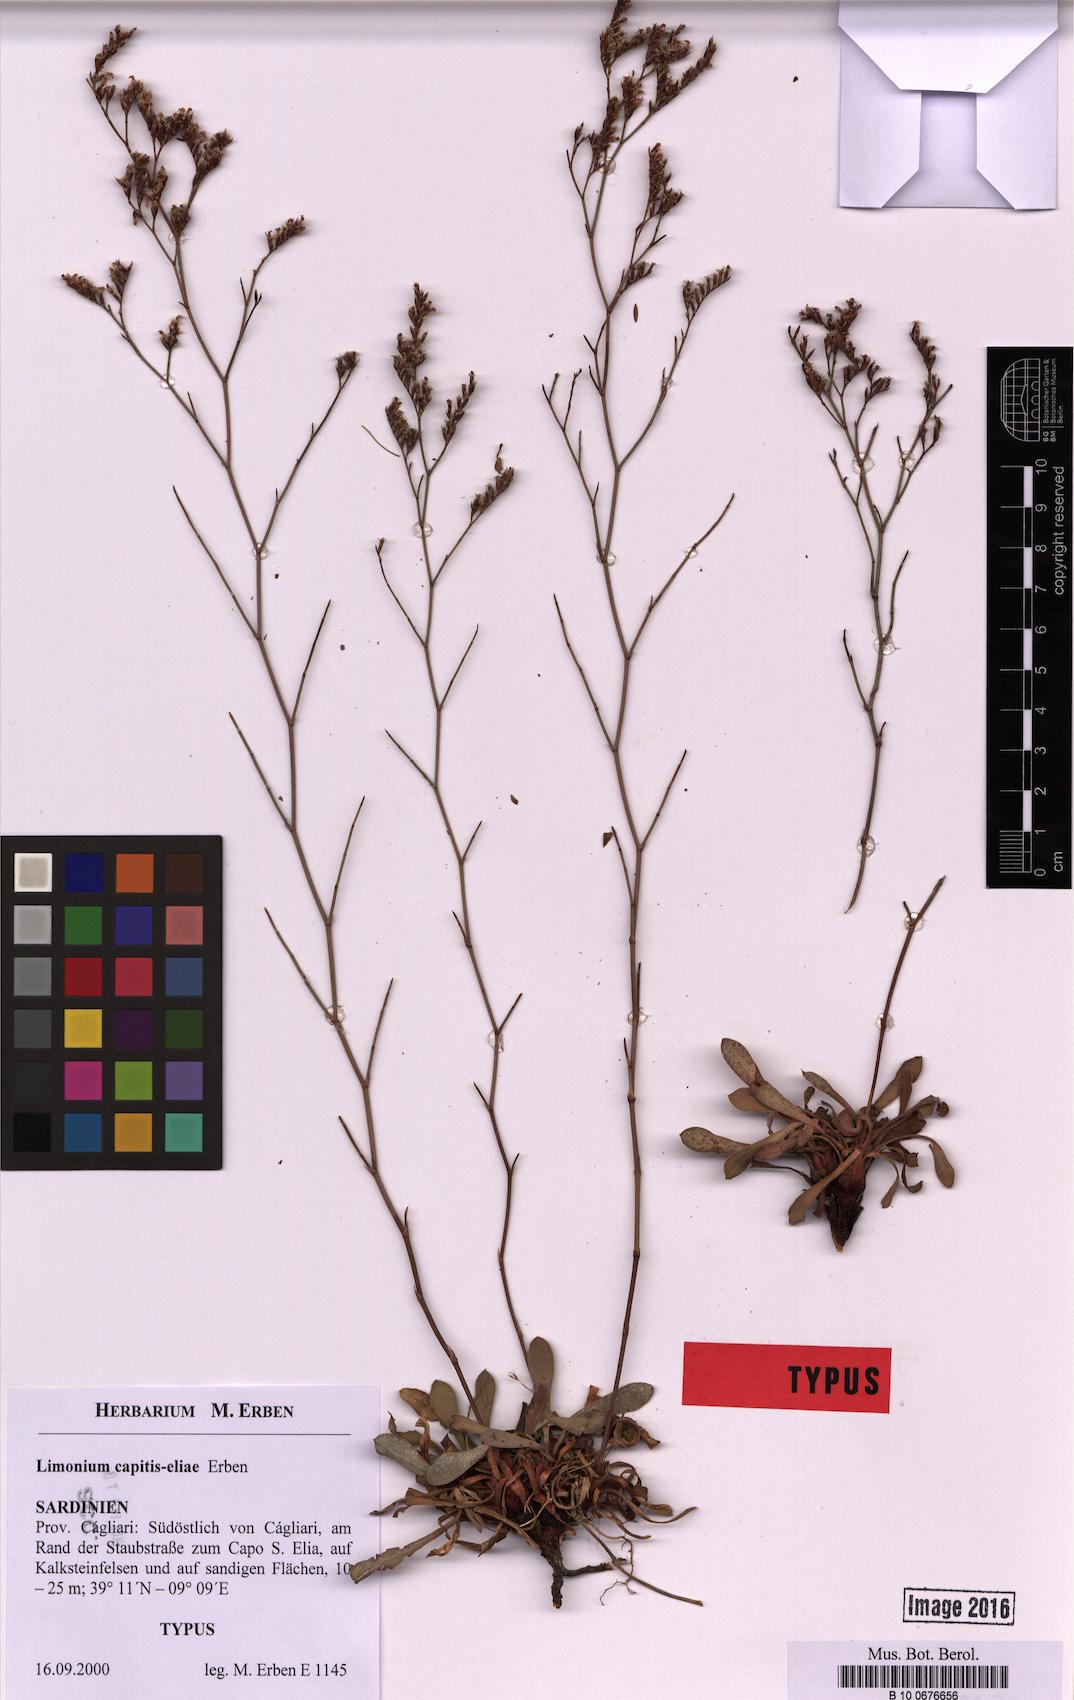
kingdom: Plantae
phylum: Tracheophyta
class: Magnoliopsida
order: Caryophyllales
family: Plumbaginaceae
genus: Limonium
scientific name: Limonium capitis-eliae
